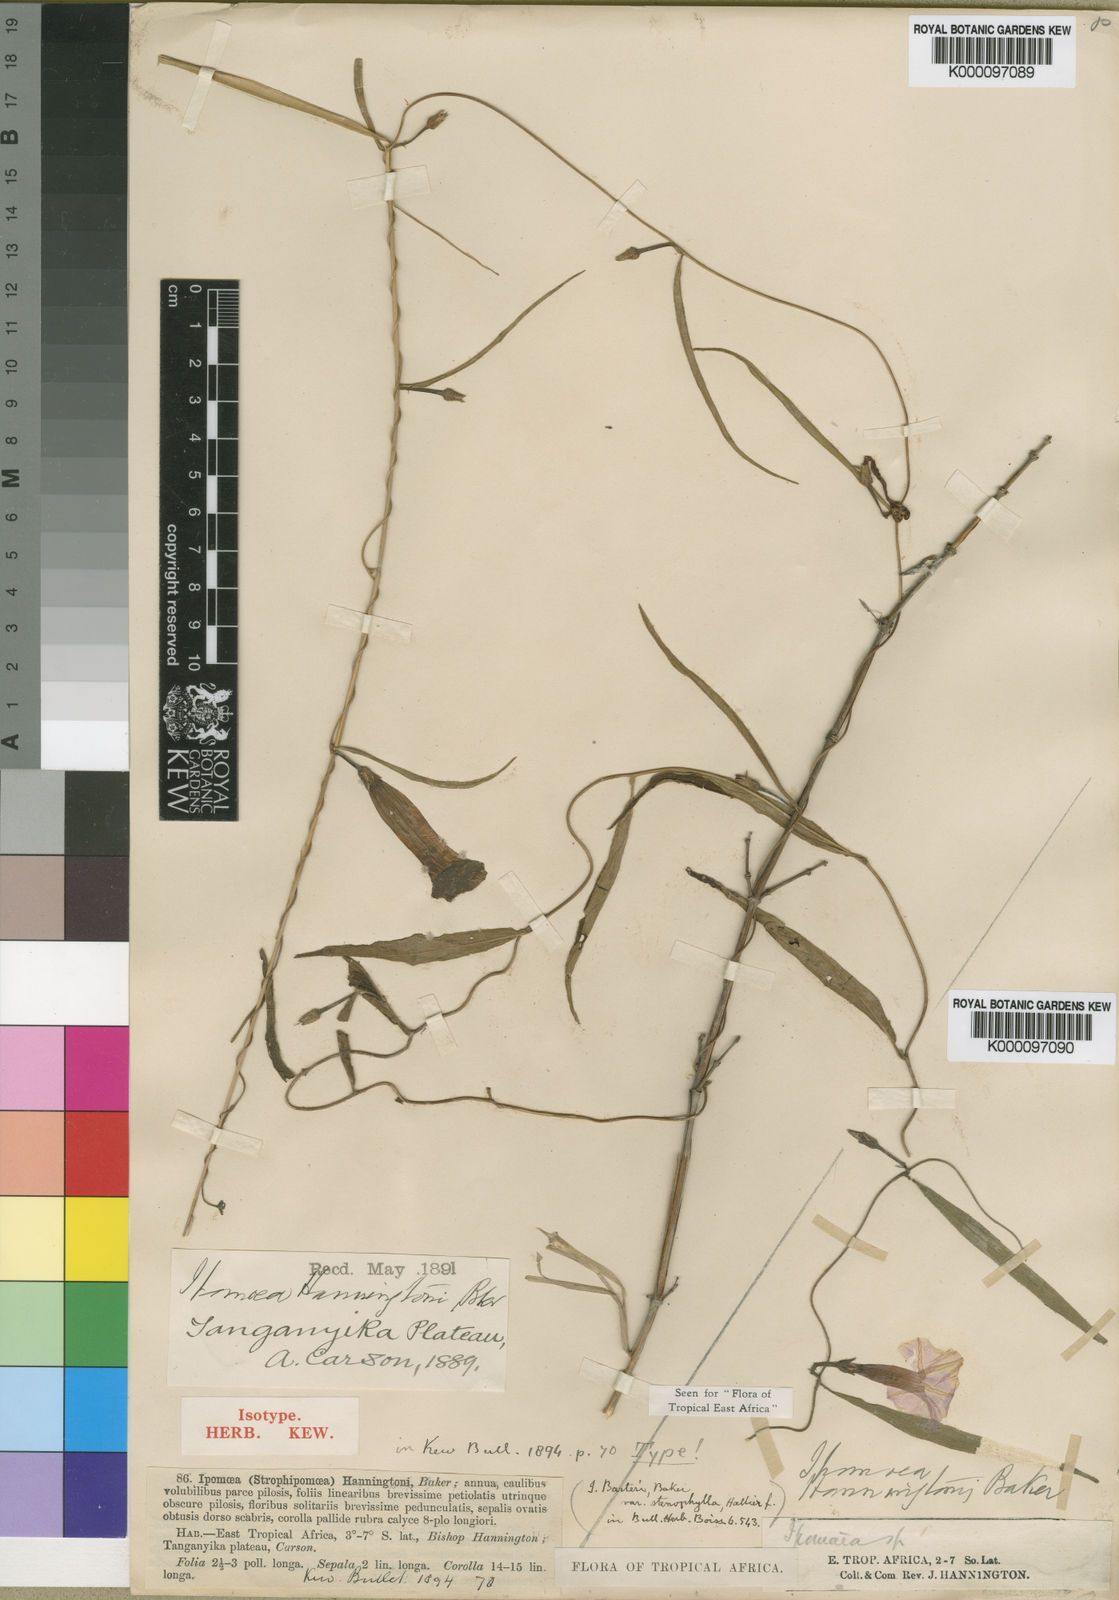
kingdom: Plantae
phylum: Tracheophyta
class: Magnoliopsida
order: Solanales
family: Convolvulaceae
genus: Ipomoea
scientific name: Ipomoea barteri
